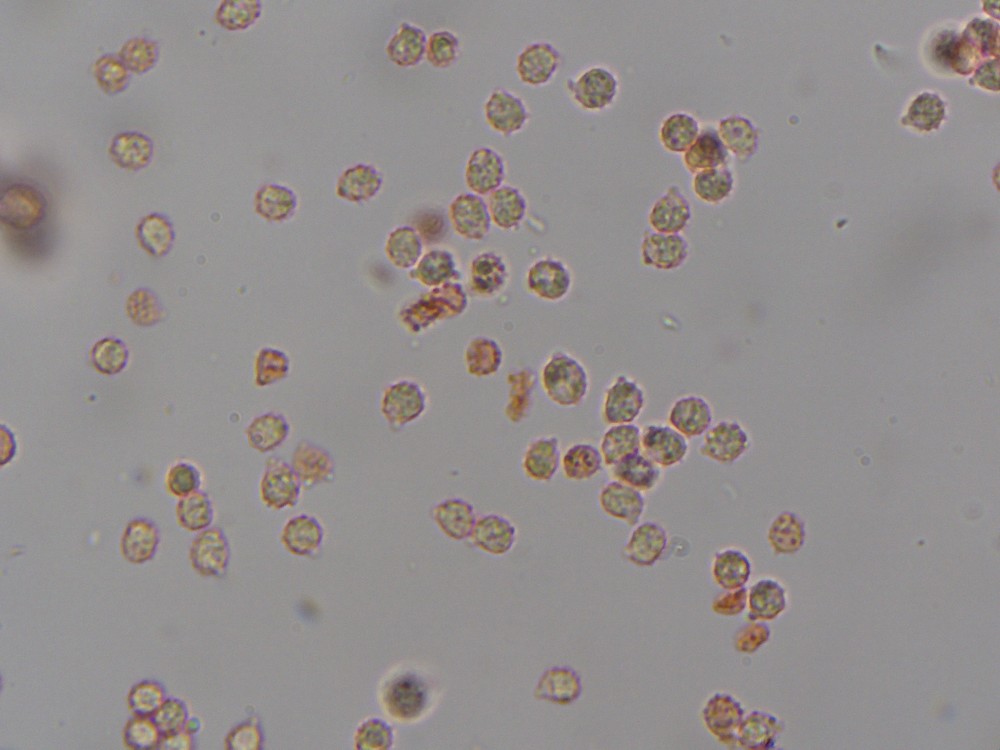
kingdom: Fungi
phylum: Basidiomycota
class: Agaricomycetes
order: Agaricales
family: Clavariaceae
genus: Ramariopsis
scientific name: Ramariopsis
